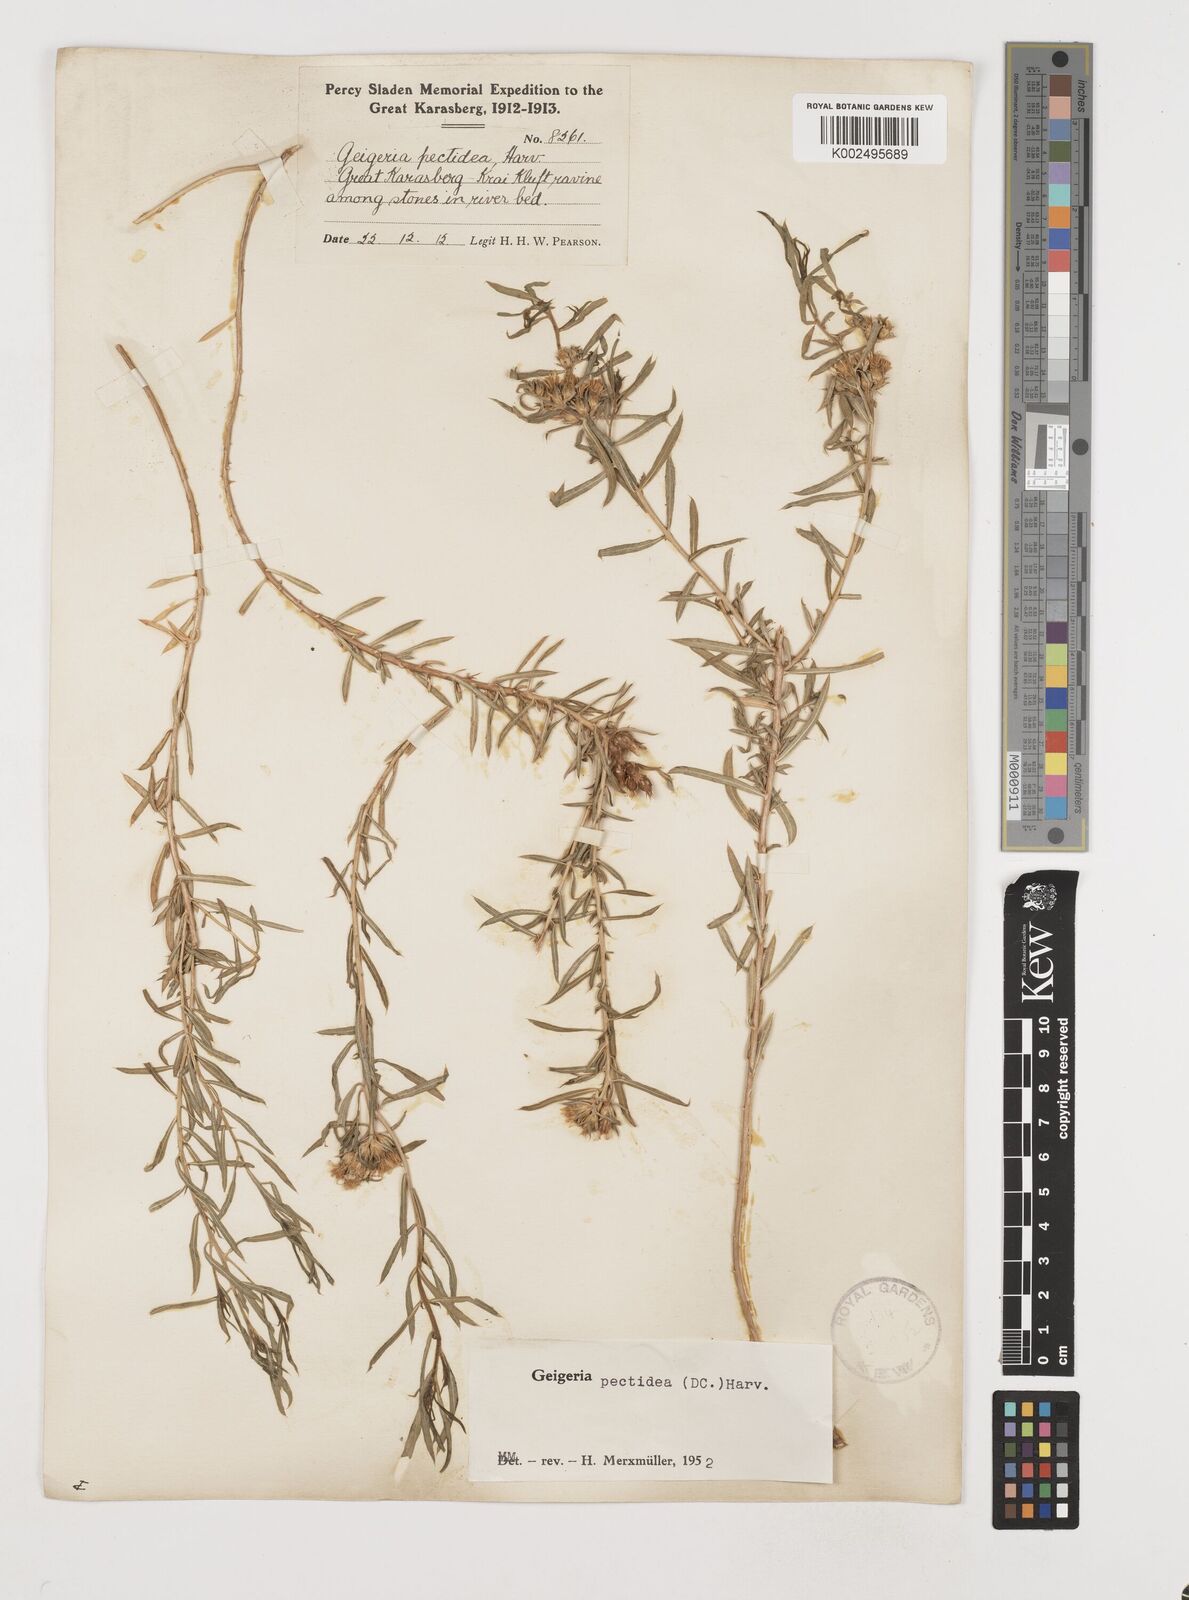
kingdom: Plantae
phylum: Tracheophyta
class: Magnoliopsida
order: Asterales
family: Asteraceae
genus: Geigeria
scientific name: Geigeria pectidea
